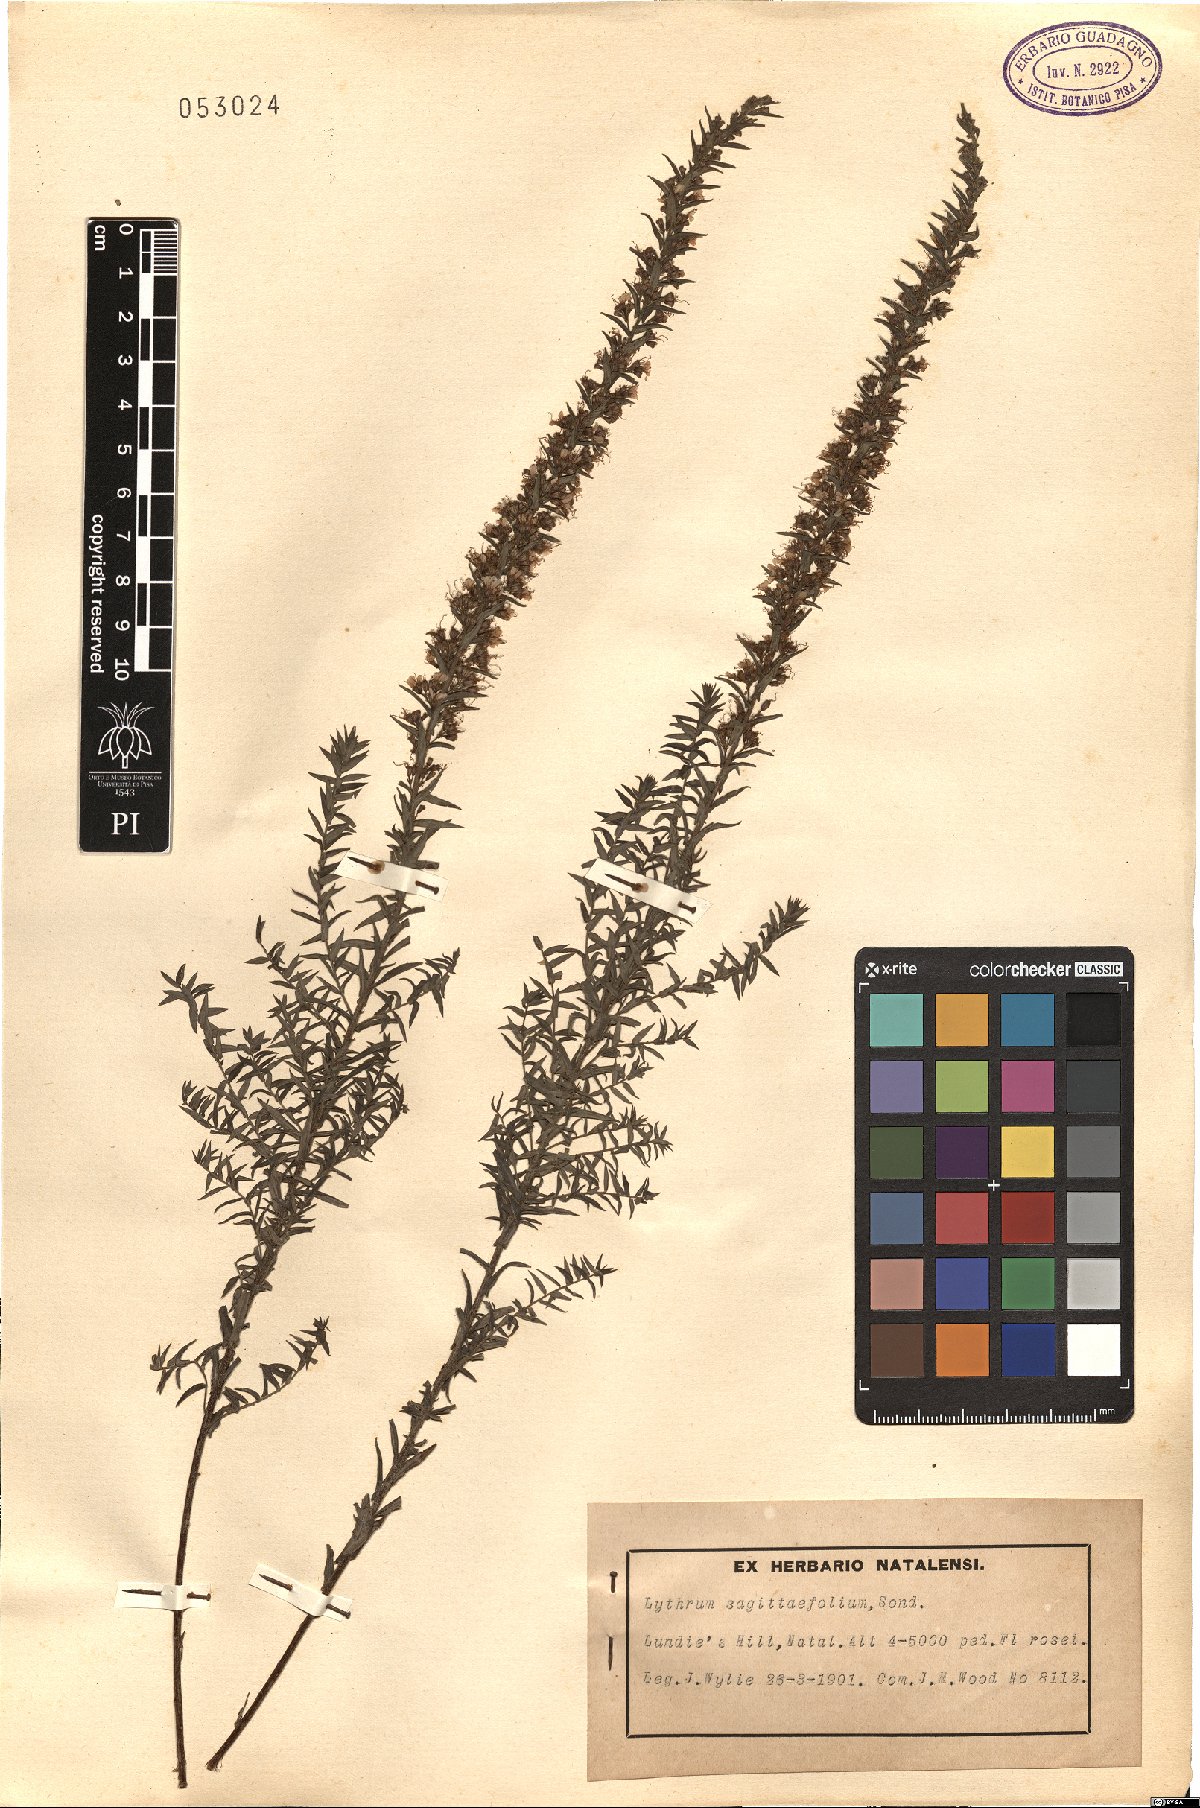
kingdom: Plantae
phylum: Tracheophyta
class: Magnoliopsida
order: Myrtales
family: Lythraceae
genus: Ammannia
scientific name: Ammannia sagittifolia
